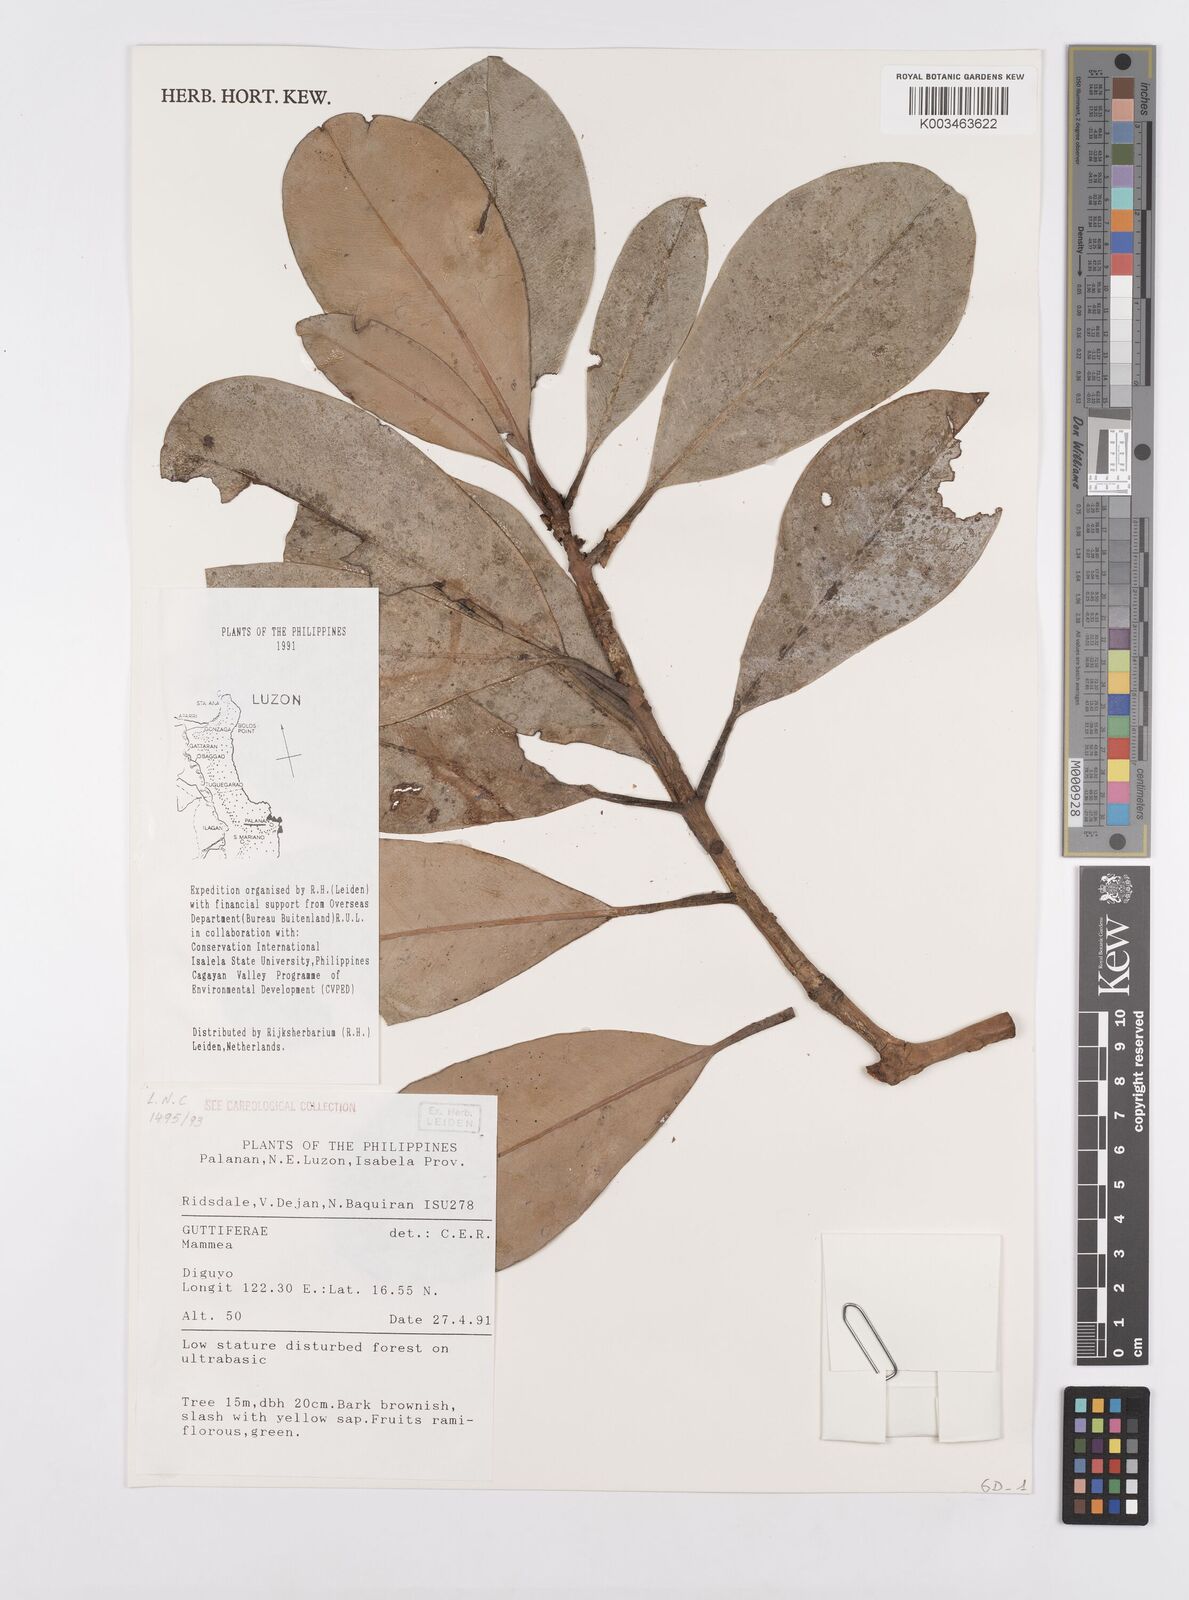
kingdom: Plantae
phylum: Tracheophyta
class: Magnoliopsida
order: Malpighiales
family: Calophyllaceae
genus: Mammea
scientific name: Mammea
